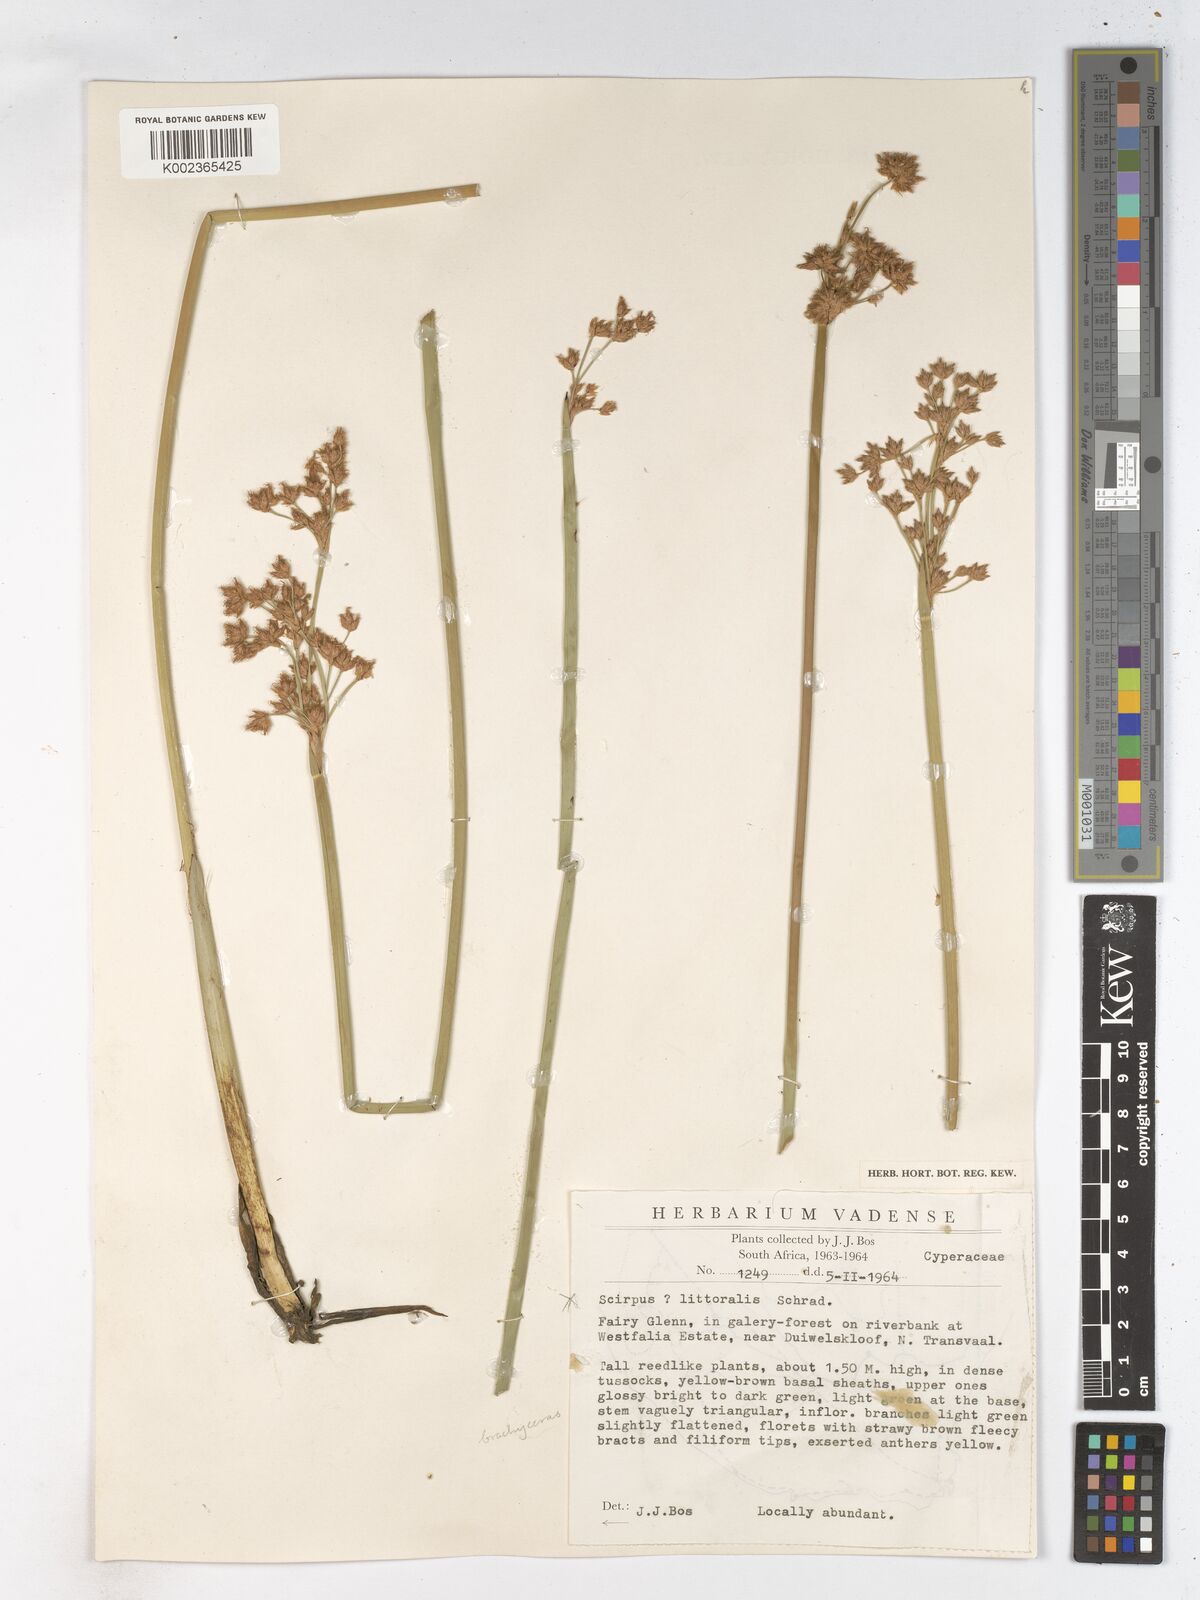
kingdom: Plantae
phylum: Tracheophyta
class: Liliopsida
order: Poales
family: Cyperaceae
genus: Schoenoplectiella
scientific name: Schoenoplectiella corymbosa
